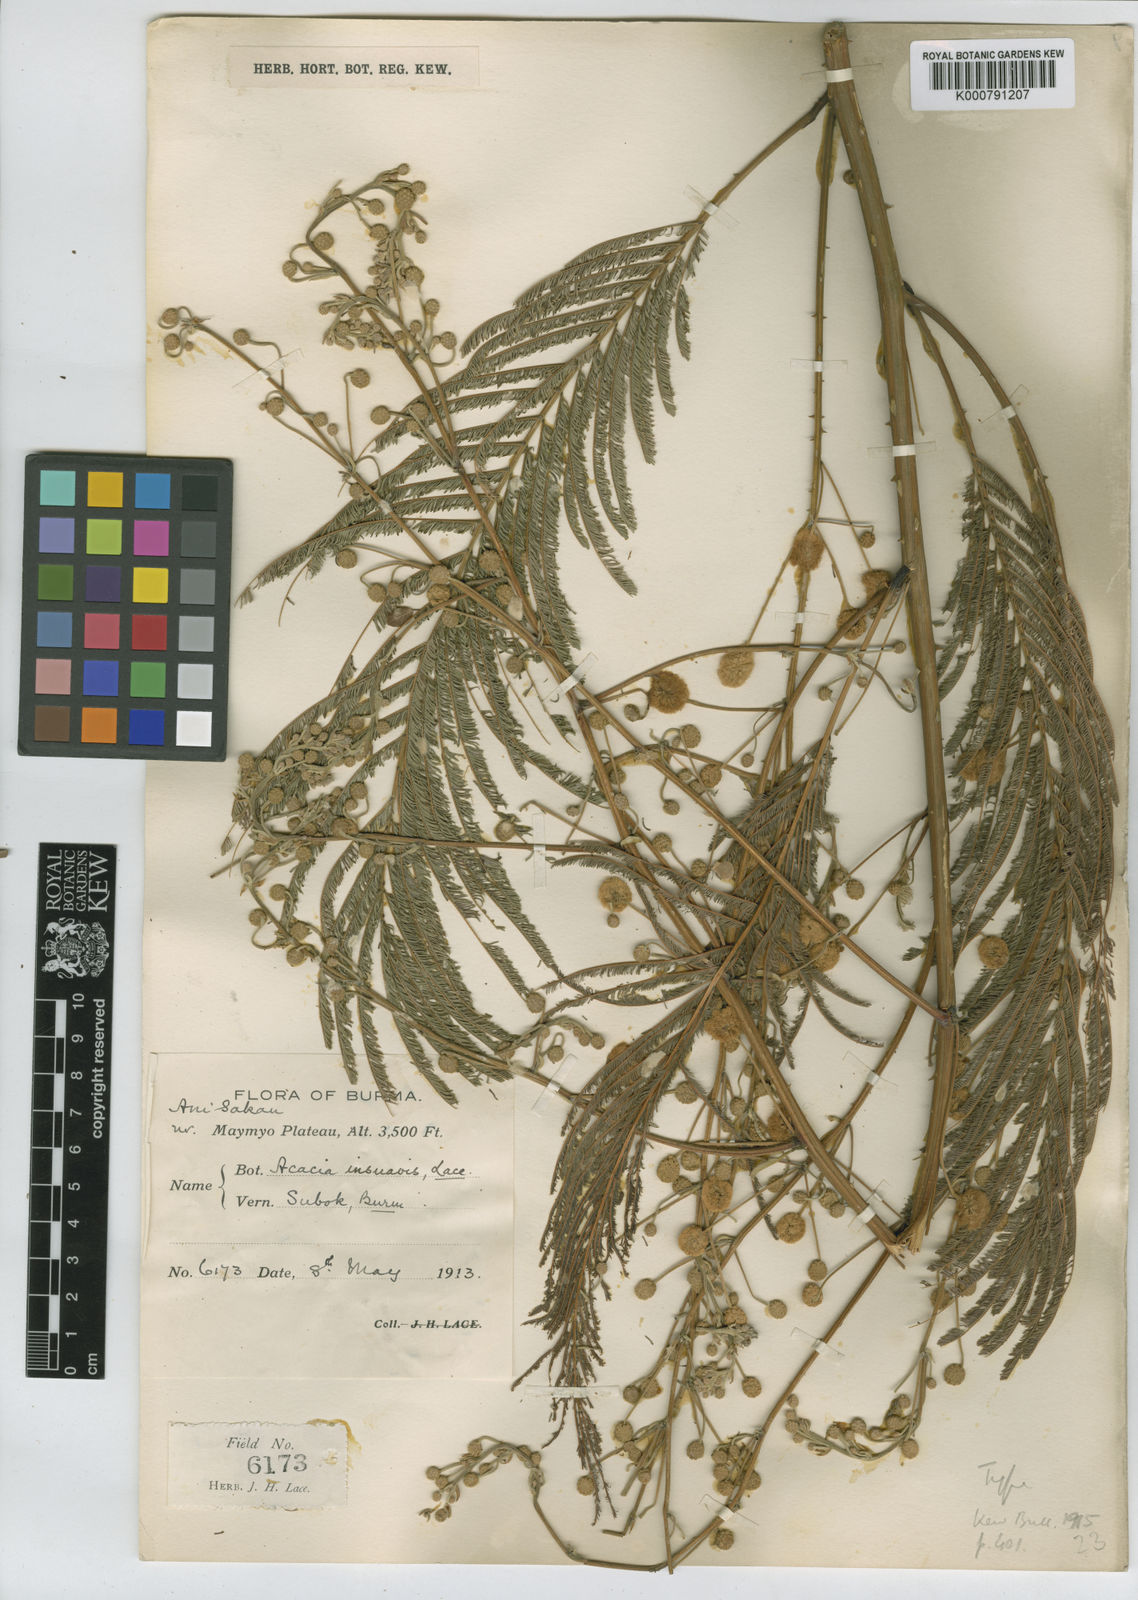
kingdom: Plantae
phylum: Tracheophyta
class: Magnoliopsida
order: Fabales
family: Fabaceae
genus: Senegalia
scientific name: Senegalia pennata
